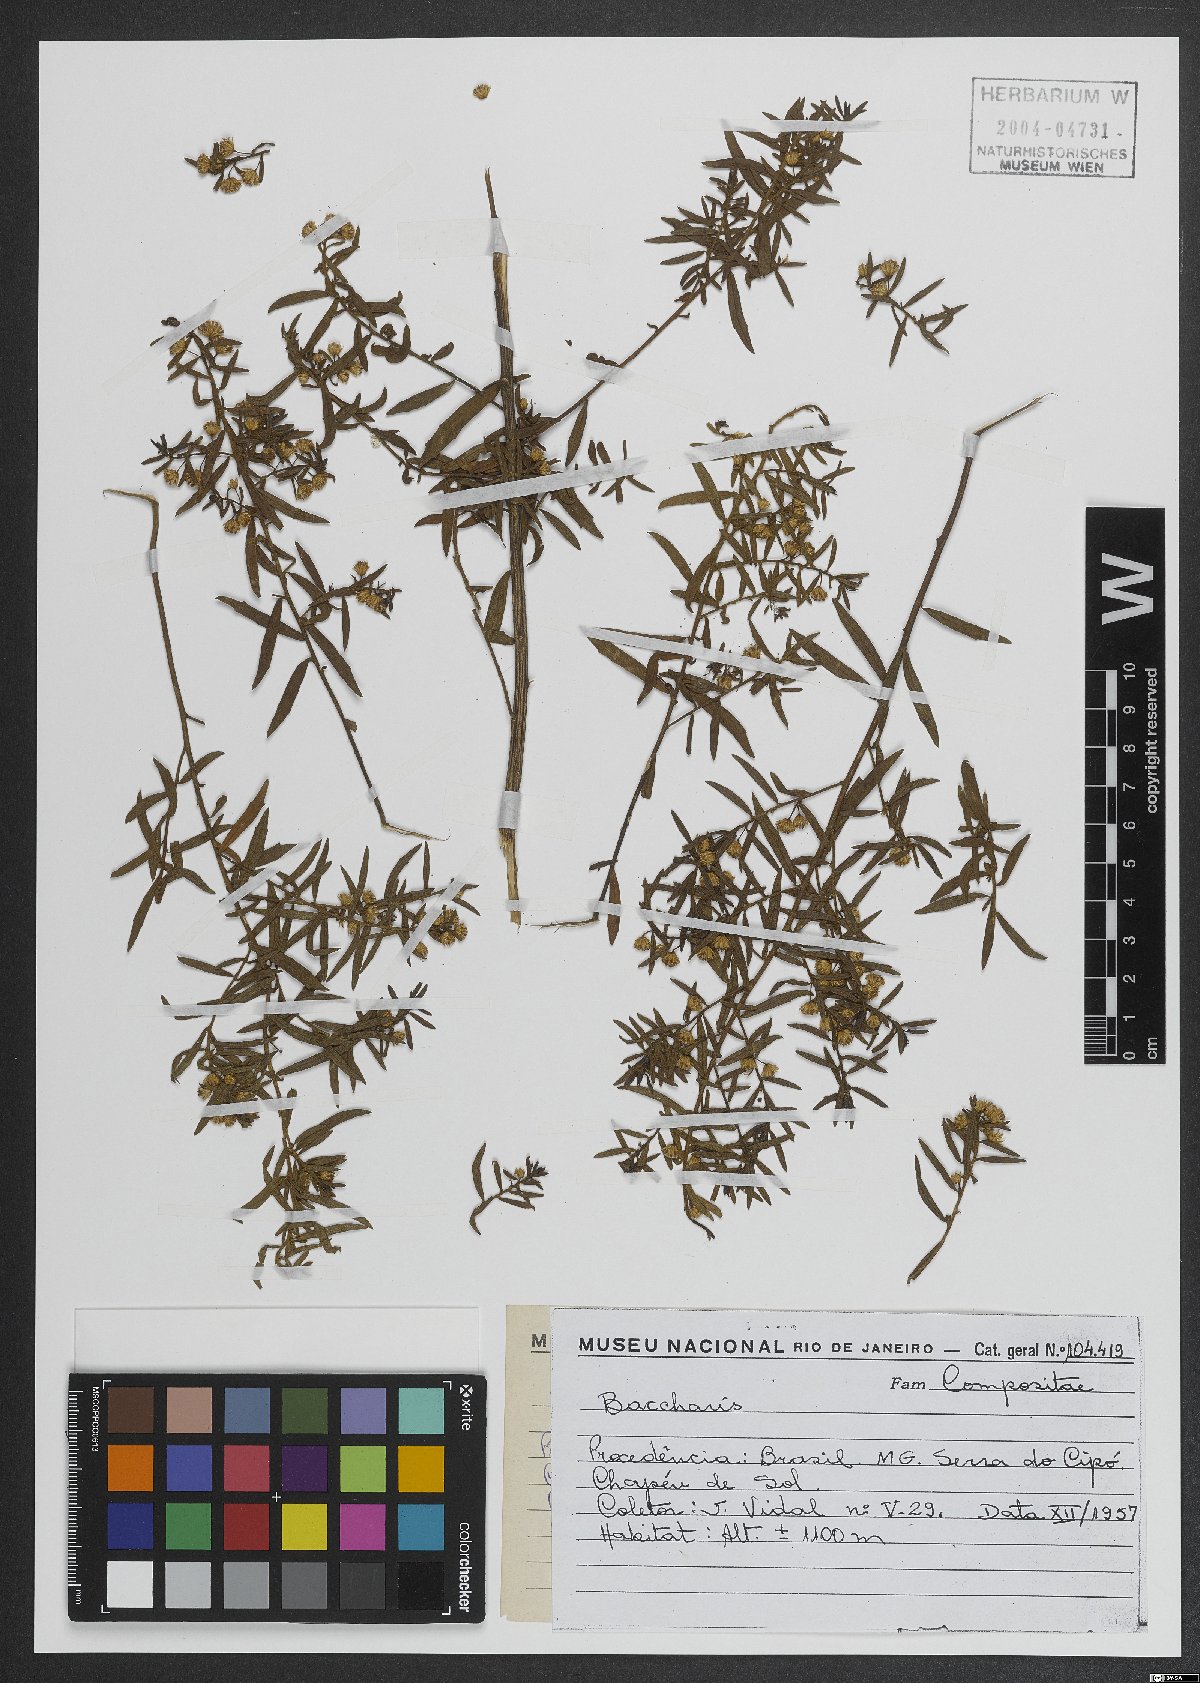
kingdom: Plantae
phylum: Tracheophyta
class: Magnoliopsida
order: Asterales
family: Asteraceae
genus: Baccharis
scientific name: Baccharis
